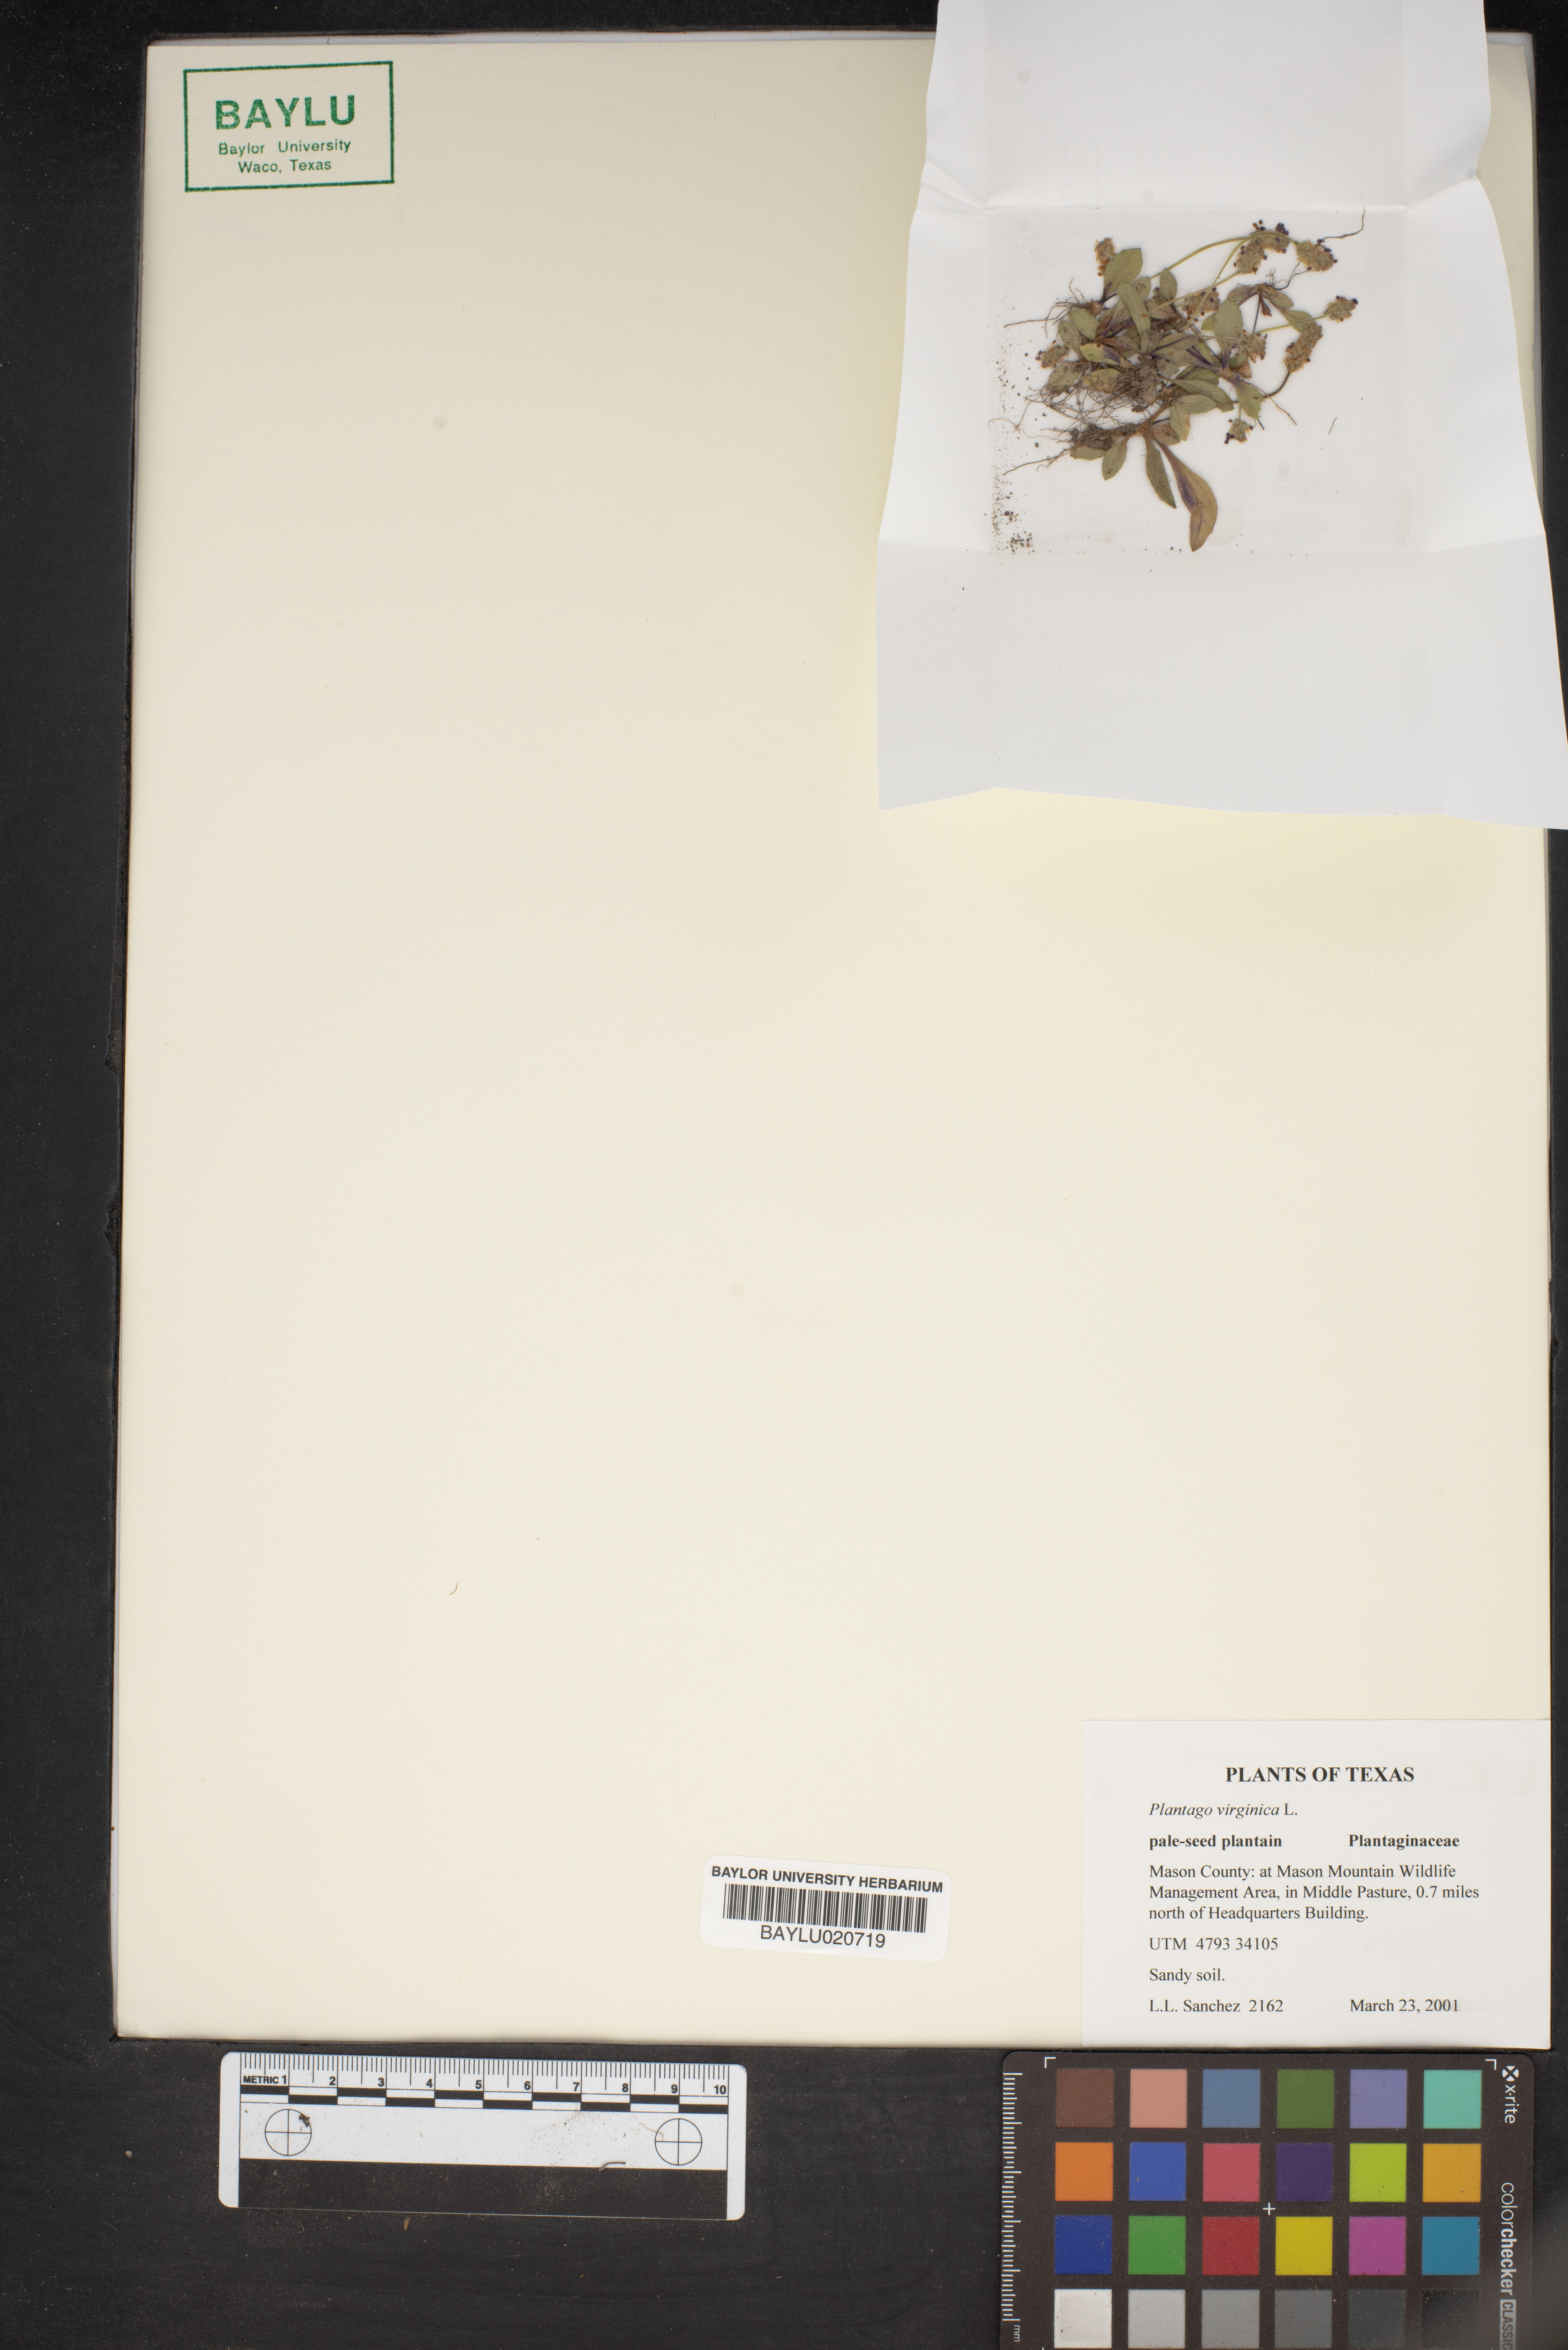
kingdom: Plantae
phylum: Tracheophyta
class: Magnoliopsida
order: Lamiales
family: Plantaginaceae
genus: Plantago
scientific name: Plantago virginica
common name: Hoary plantain
